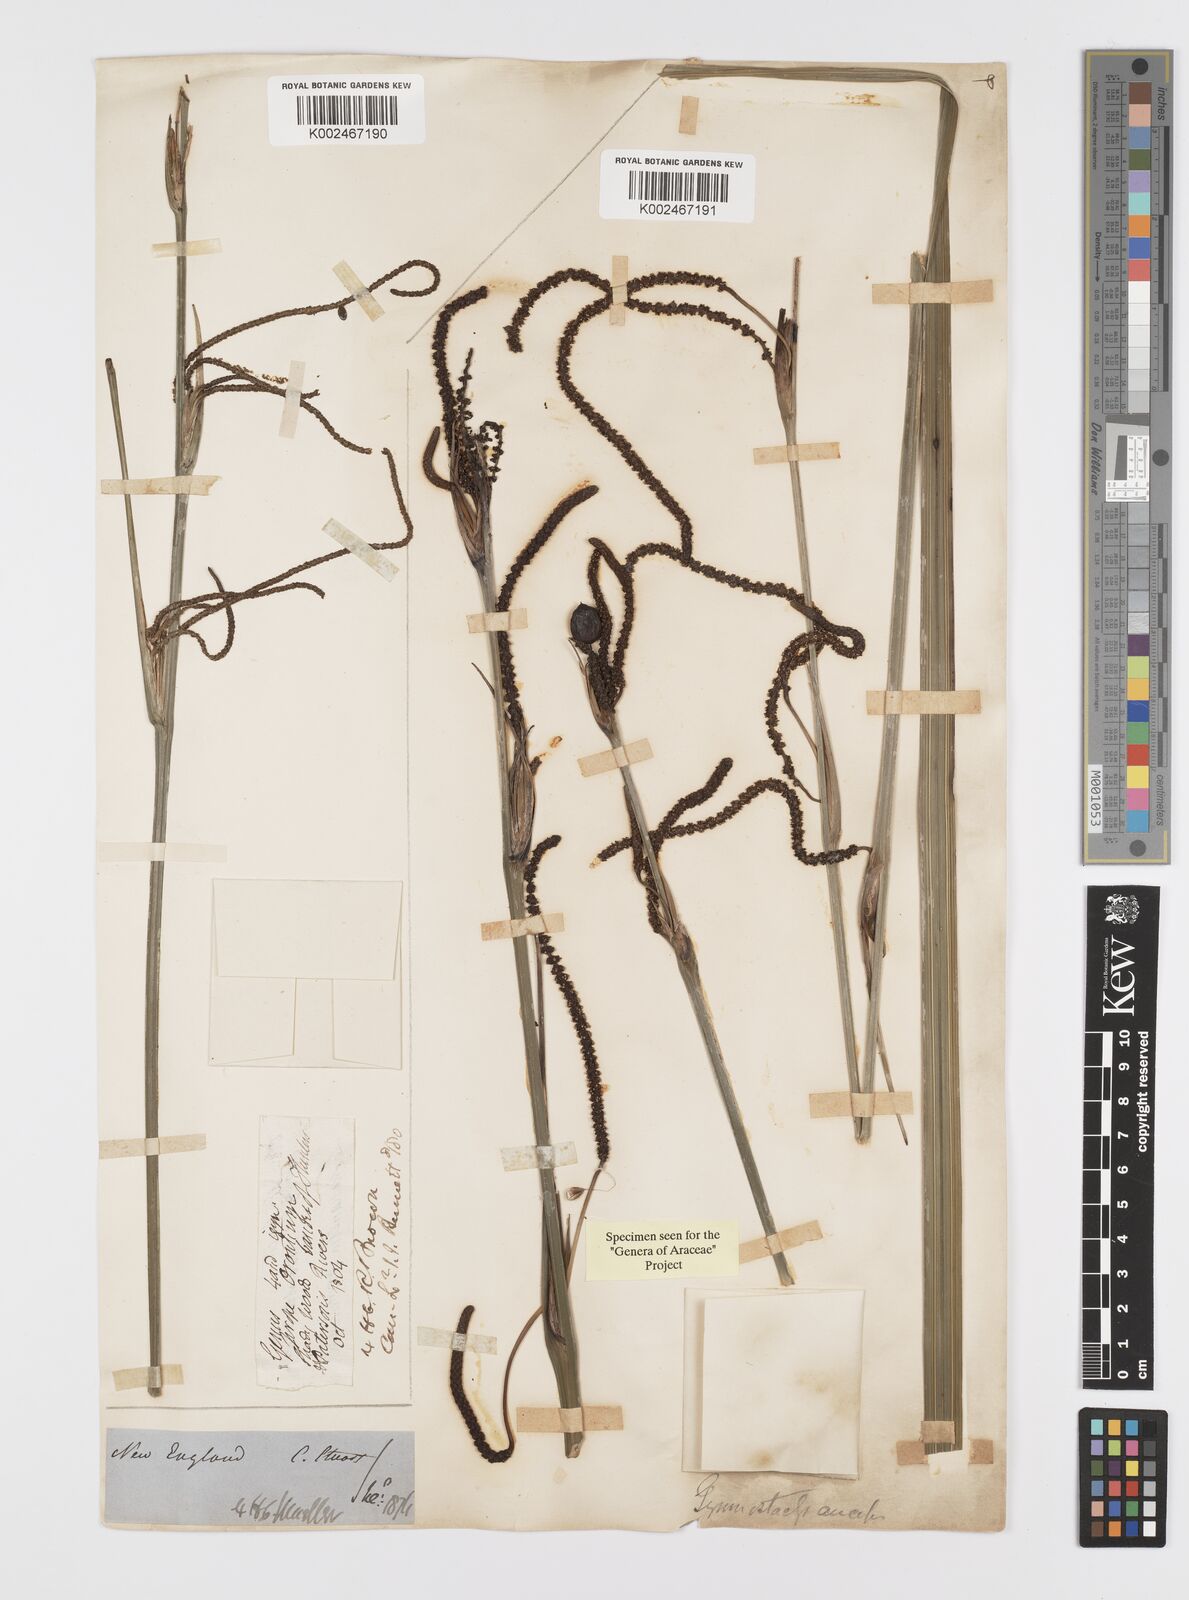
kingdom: Plantae
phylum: Tracheophyta
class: Liliopsida
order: Alismatales
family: Araceae
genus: Gymnostachys
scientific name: Gymnostachys anceps
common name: Settler's-flax
